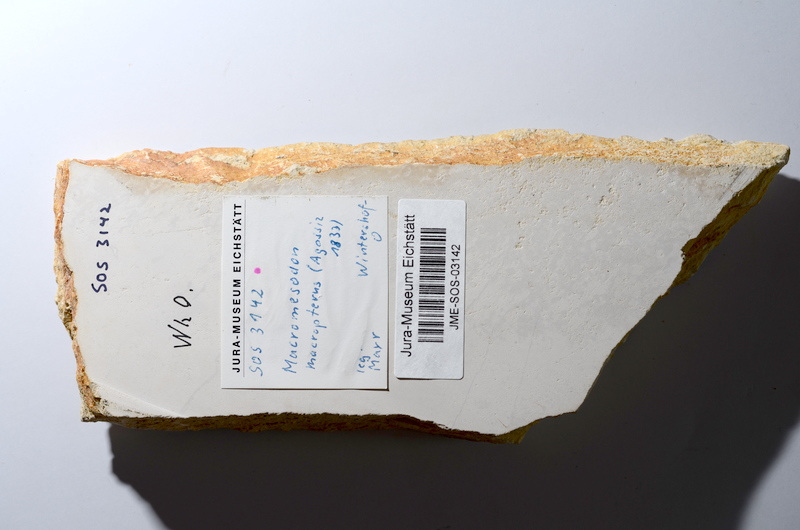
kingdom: Animalia
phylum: Chordata
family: Pycnodontidae
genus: Turbomesodon
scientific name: Turbomesodon relegans
